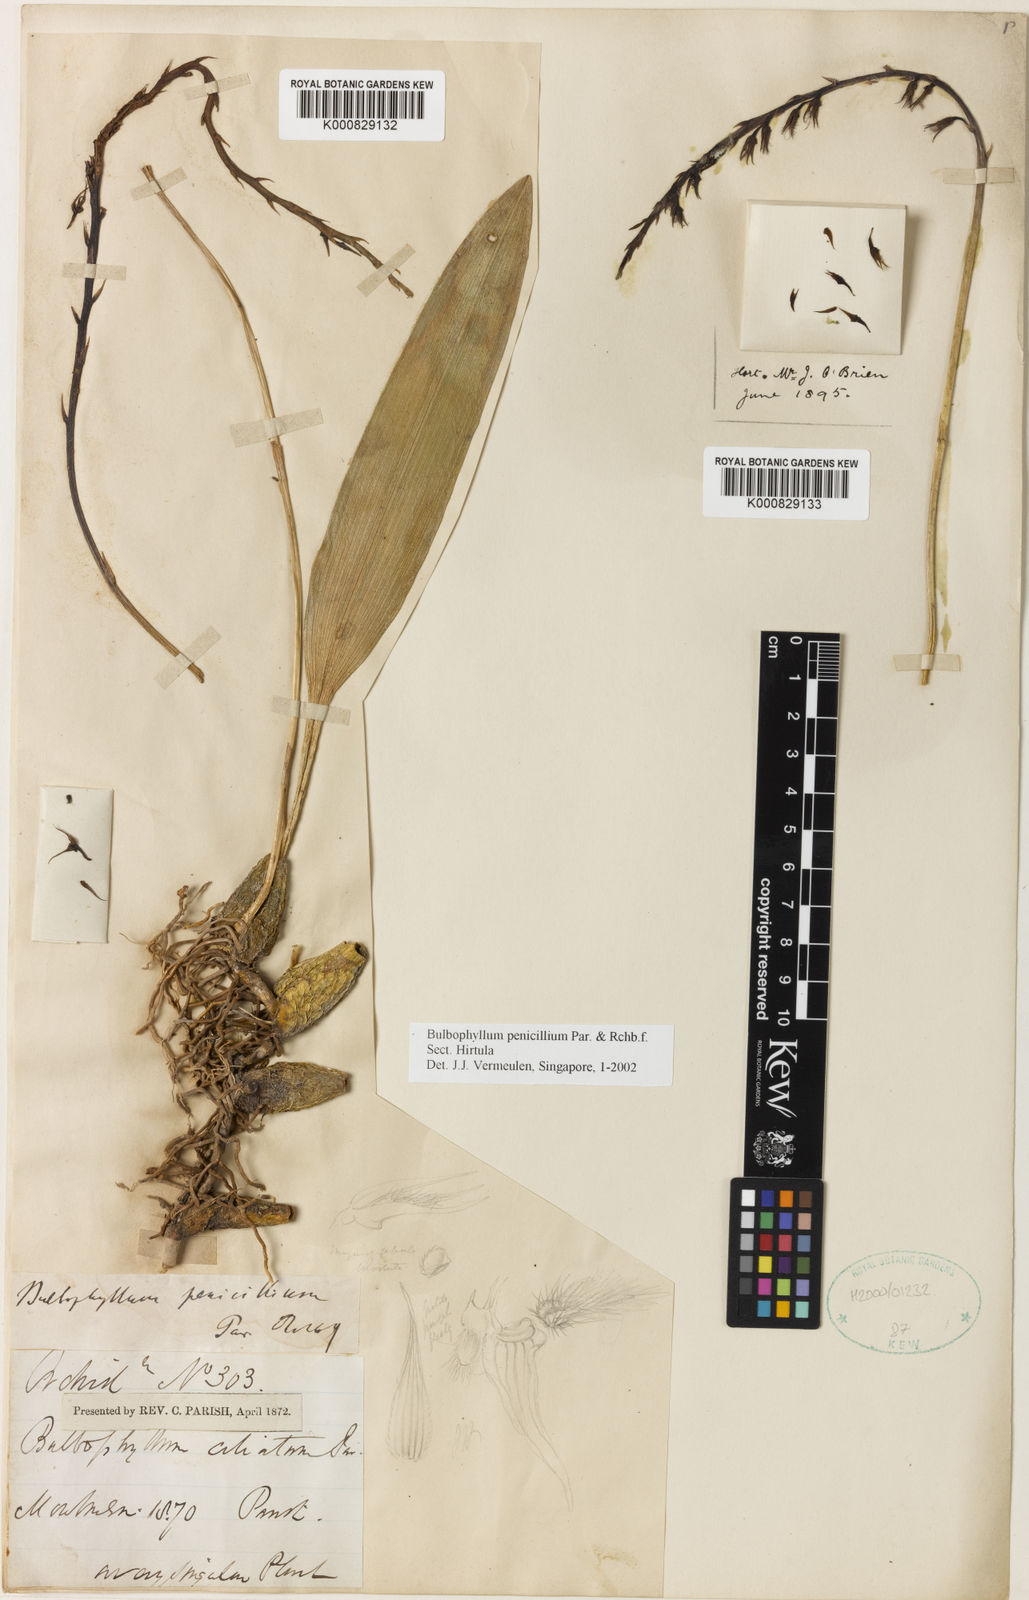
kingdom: Plantae
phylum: Tracheophyta
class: Liliopsida
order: Asparagales
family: Orchidaceae
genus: Bulbophyllum
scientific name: Bulbophyllum penicillium
